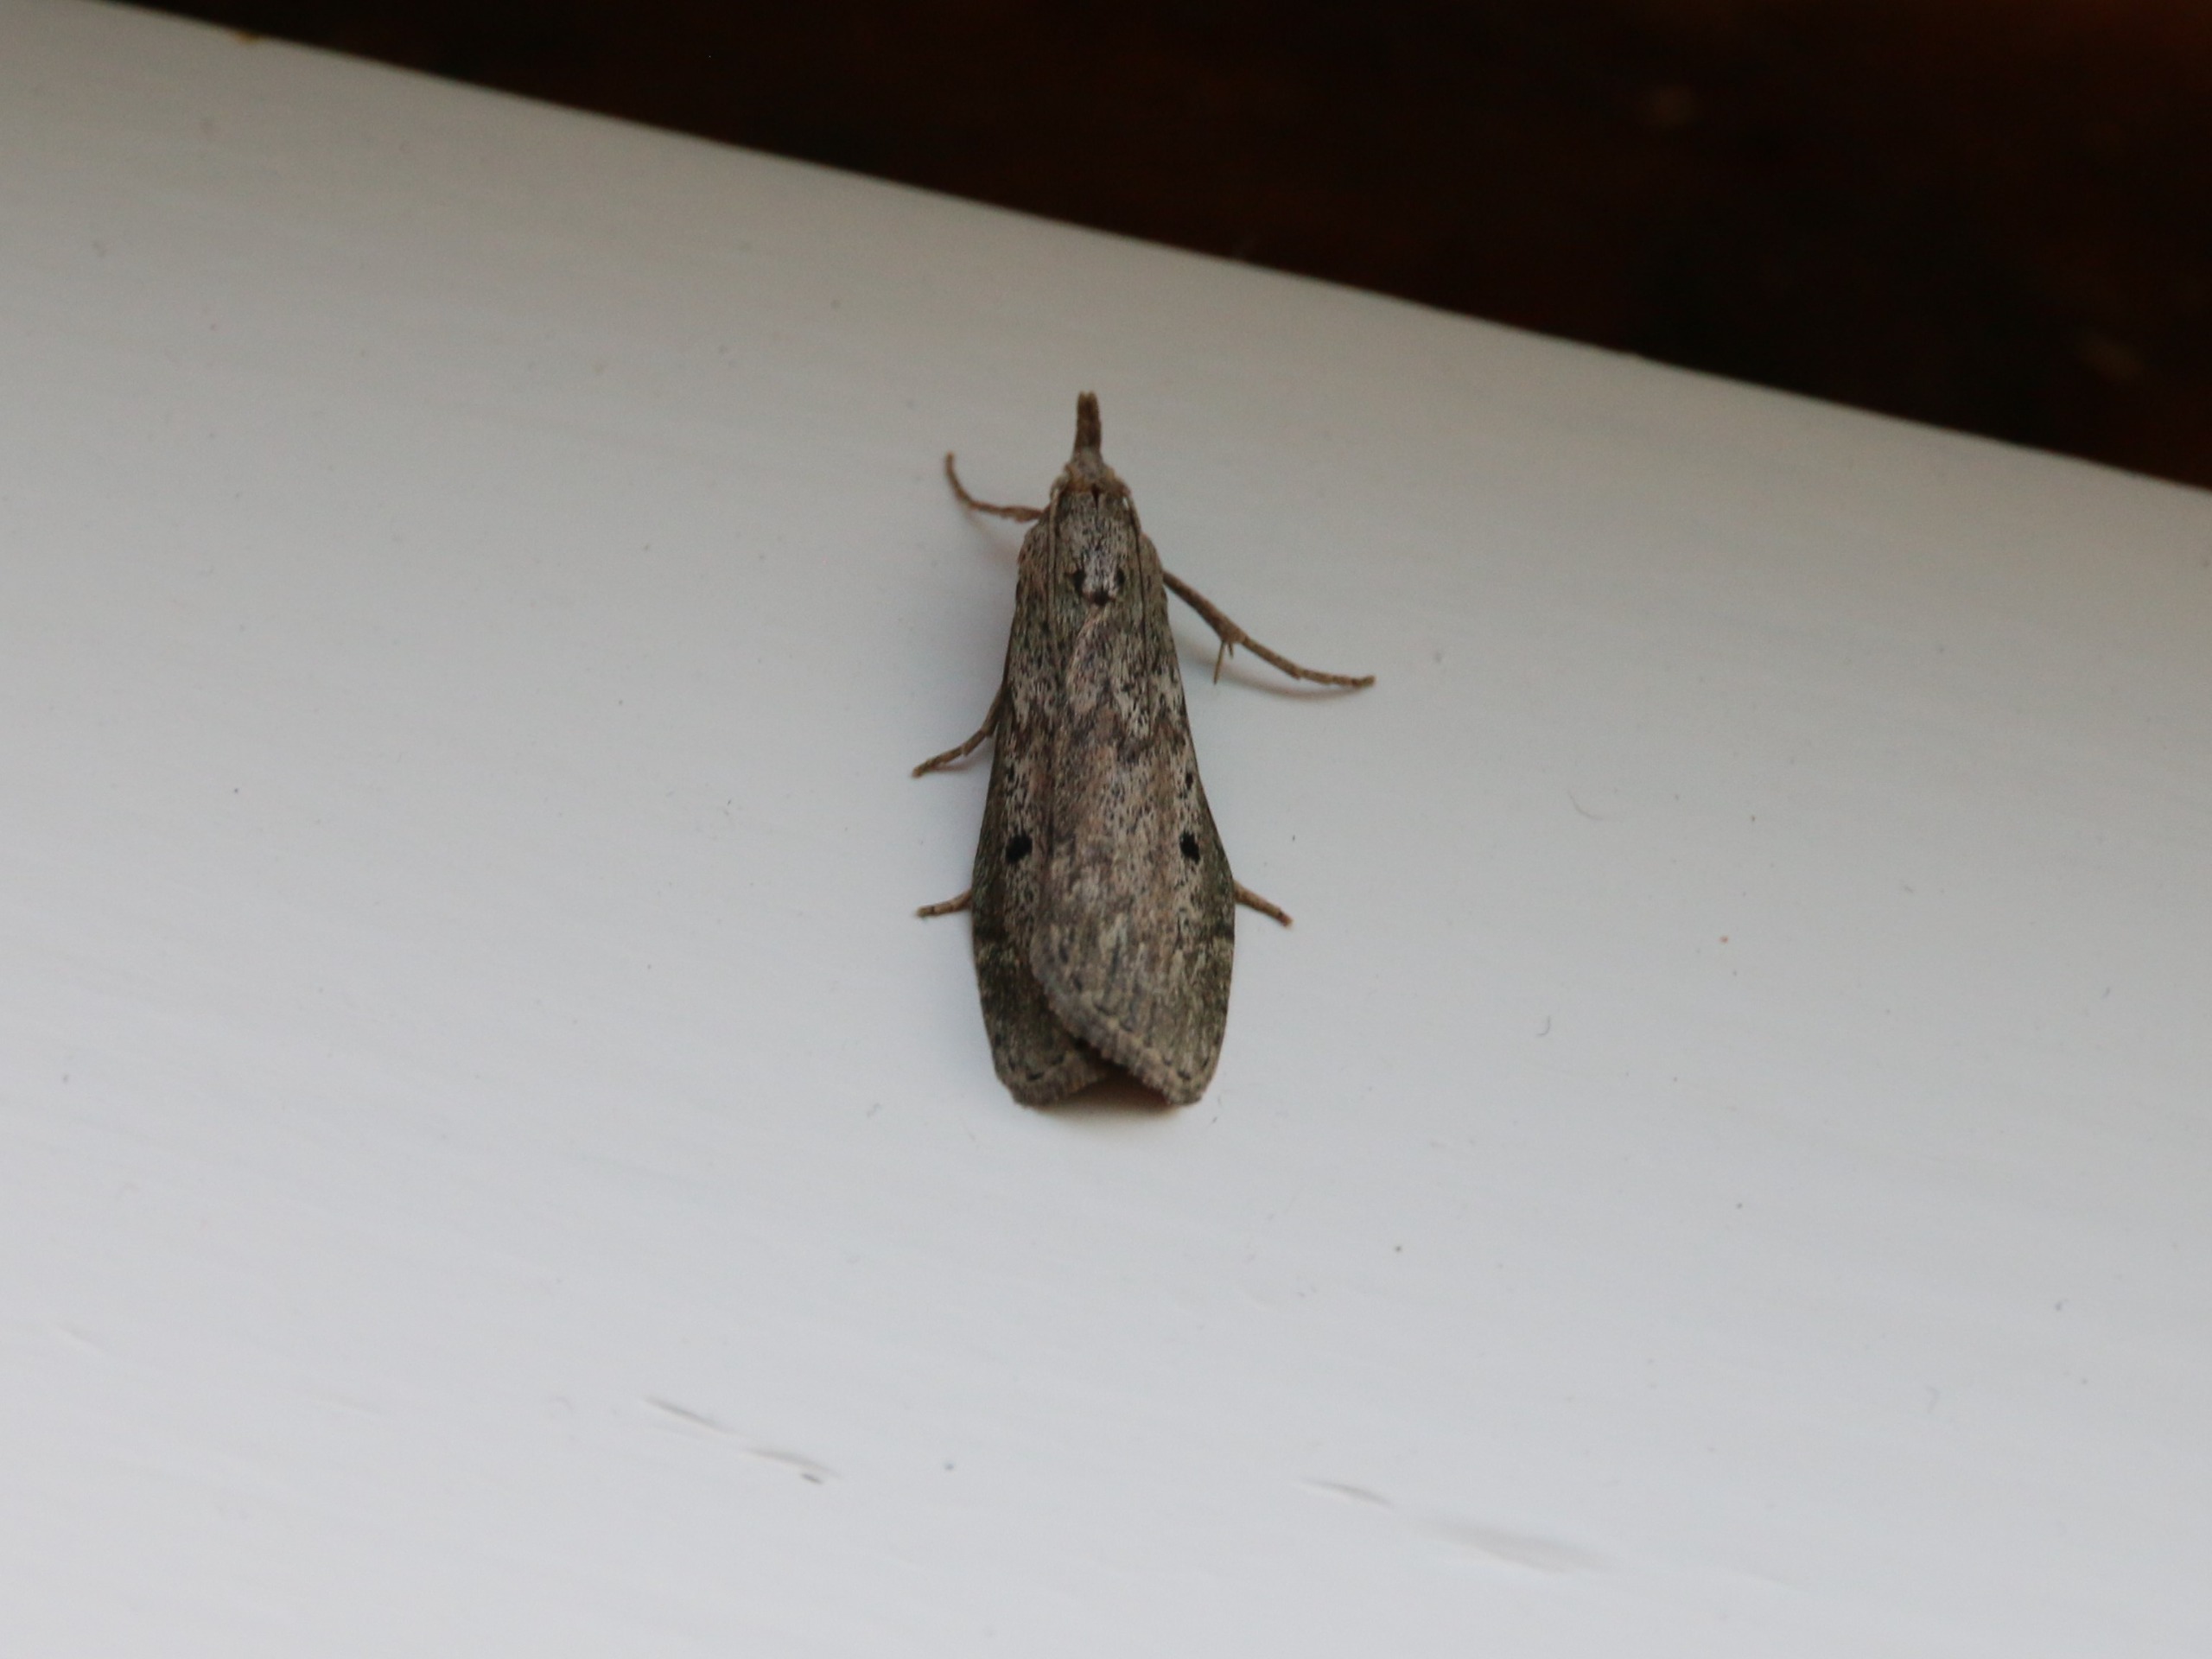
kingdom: Animalia
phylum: Arthropoda
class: Insecta
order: Lepidoptera
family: Pyralidae
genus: Aphomia
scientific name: Aphomia sociella
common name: Humlevoksmøl
